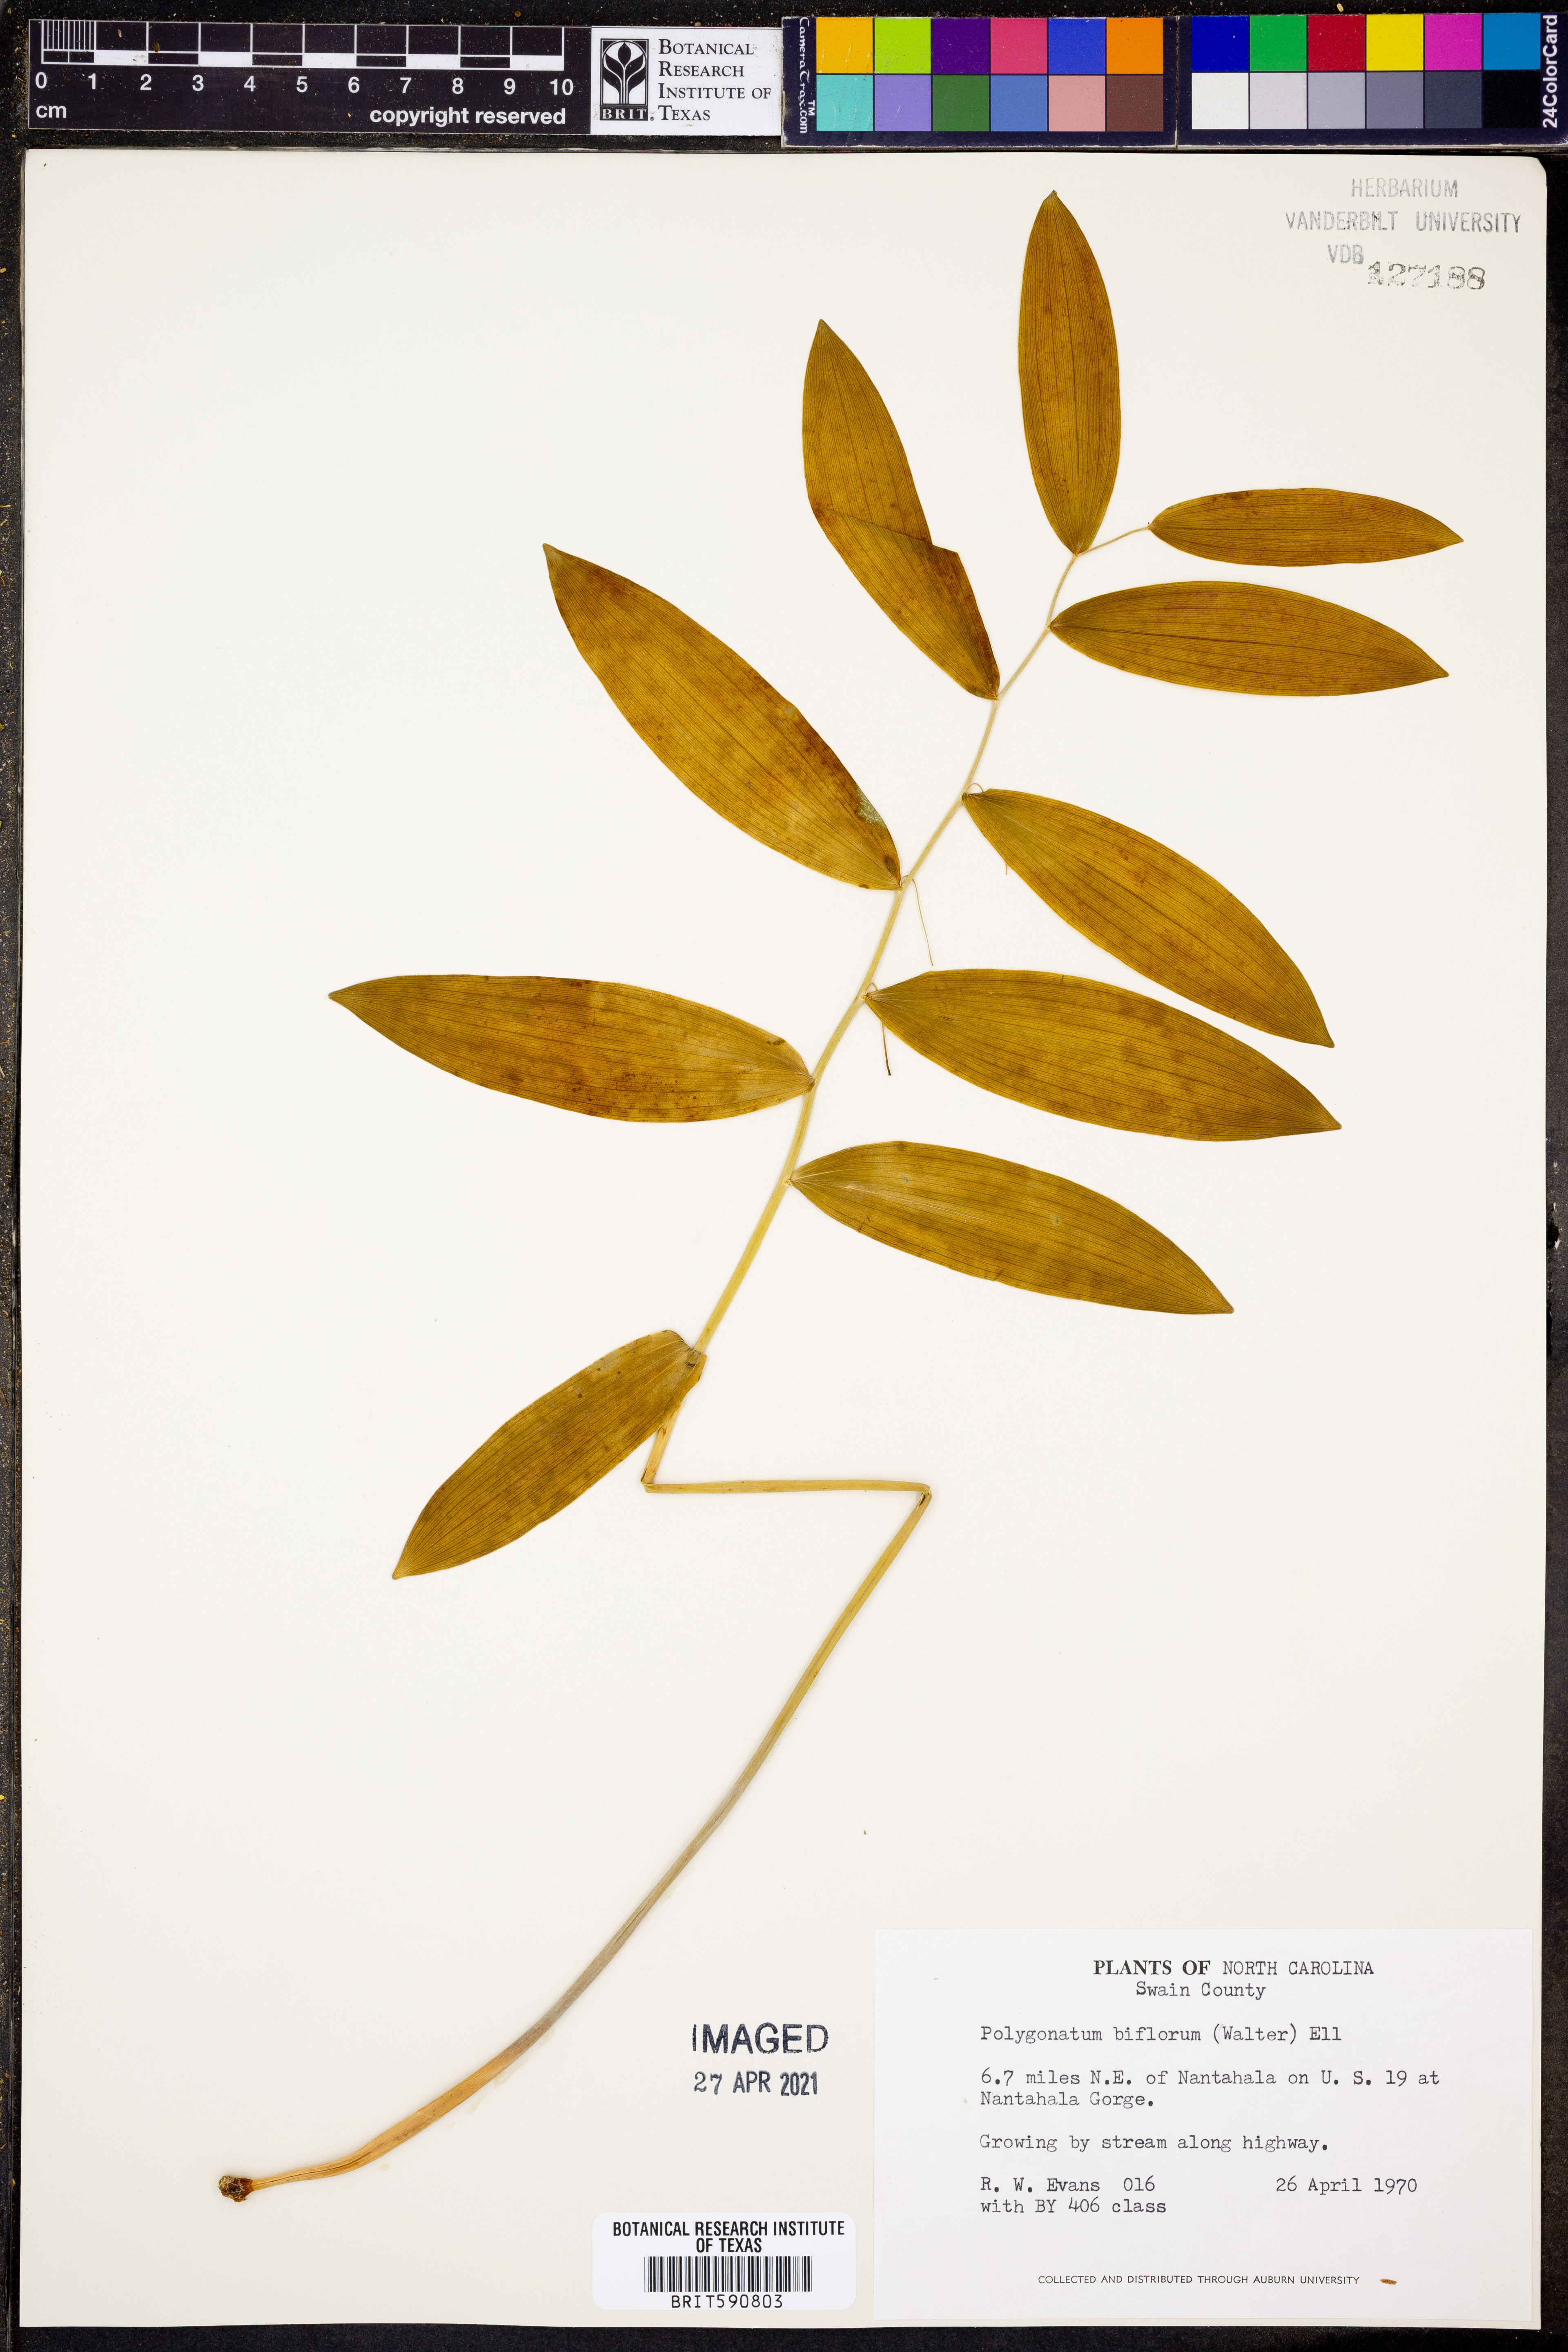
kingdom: Plantae
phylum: Tracheophyta
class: Liliopsida
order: Asparagales
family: Asparagaceae
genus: Polygonatum
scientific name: Polygonatum biflorum
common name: American solomon's-seal
